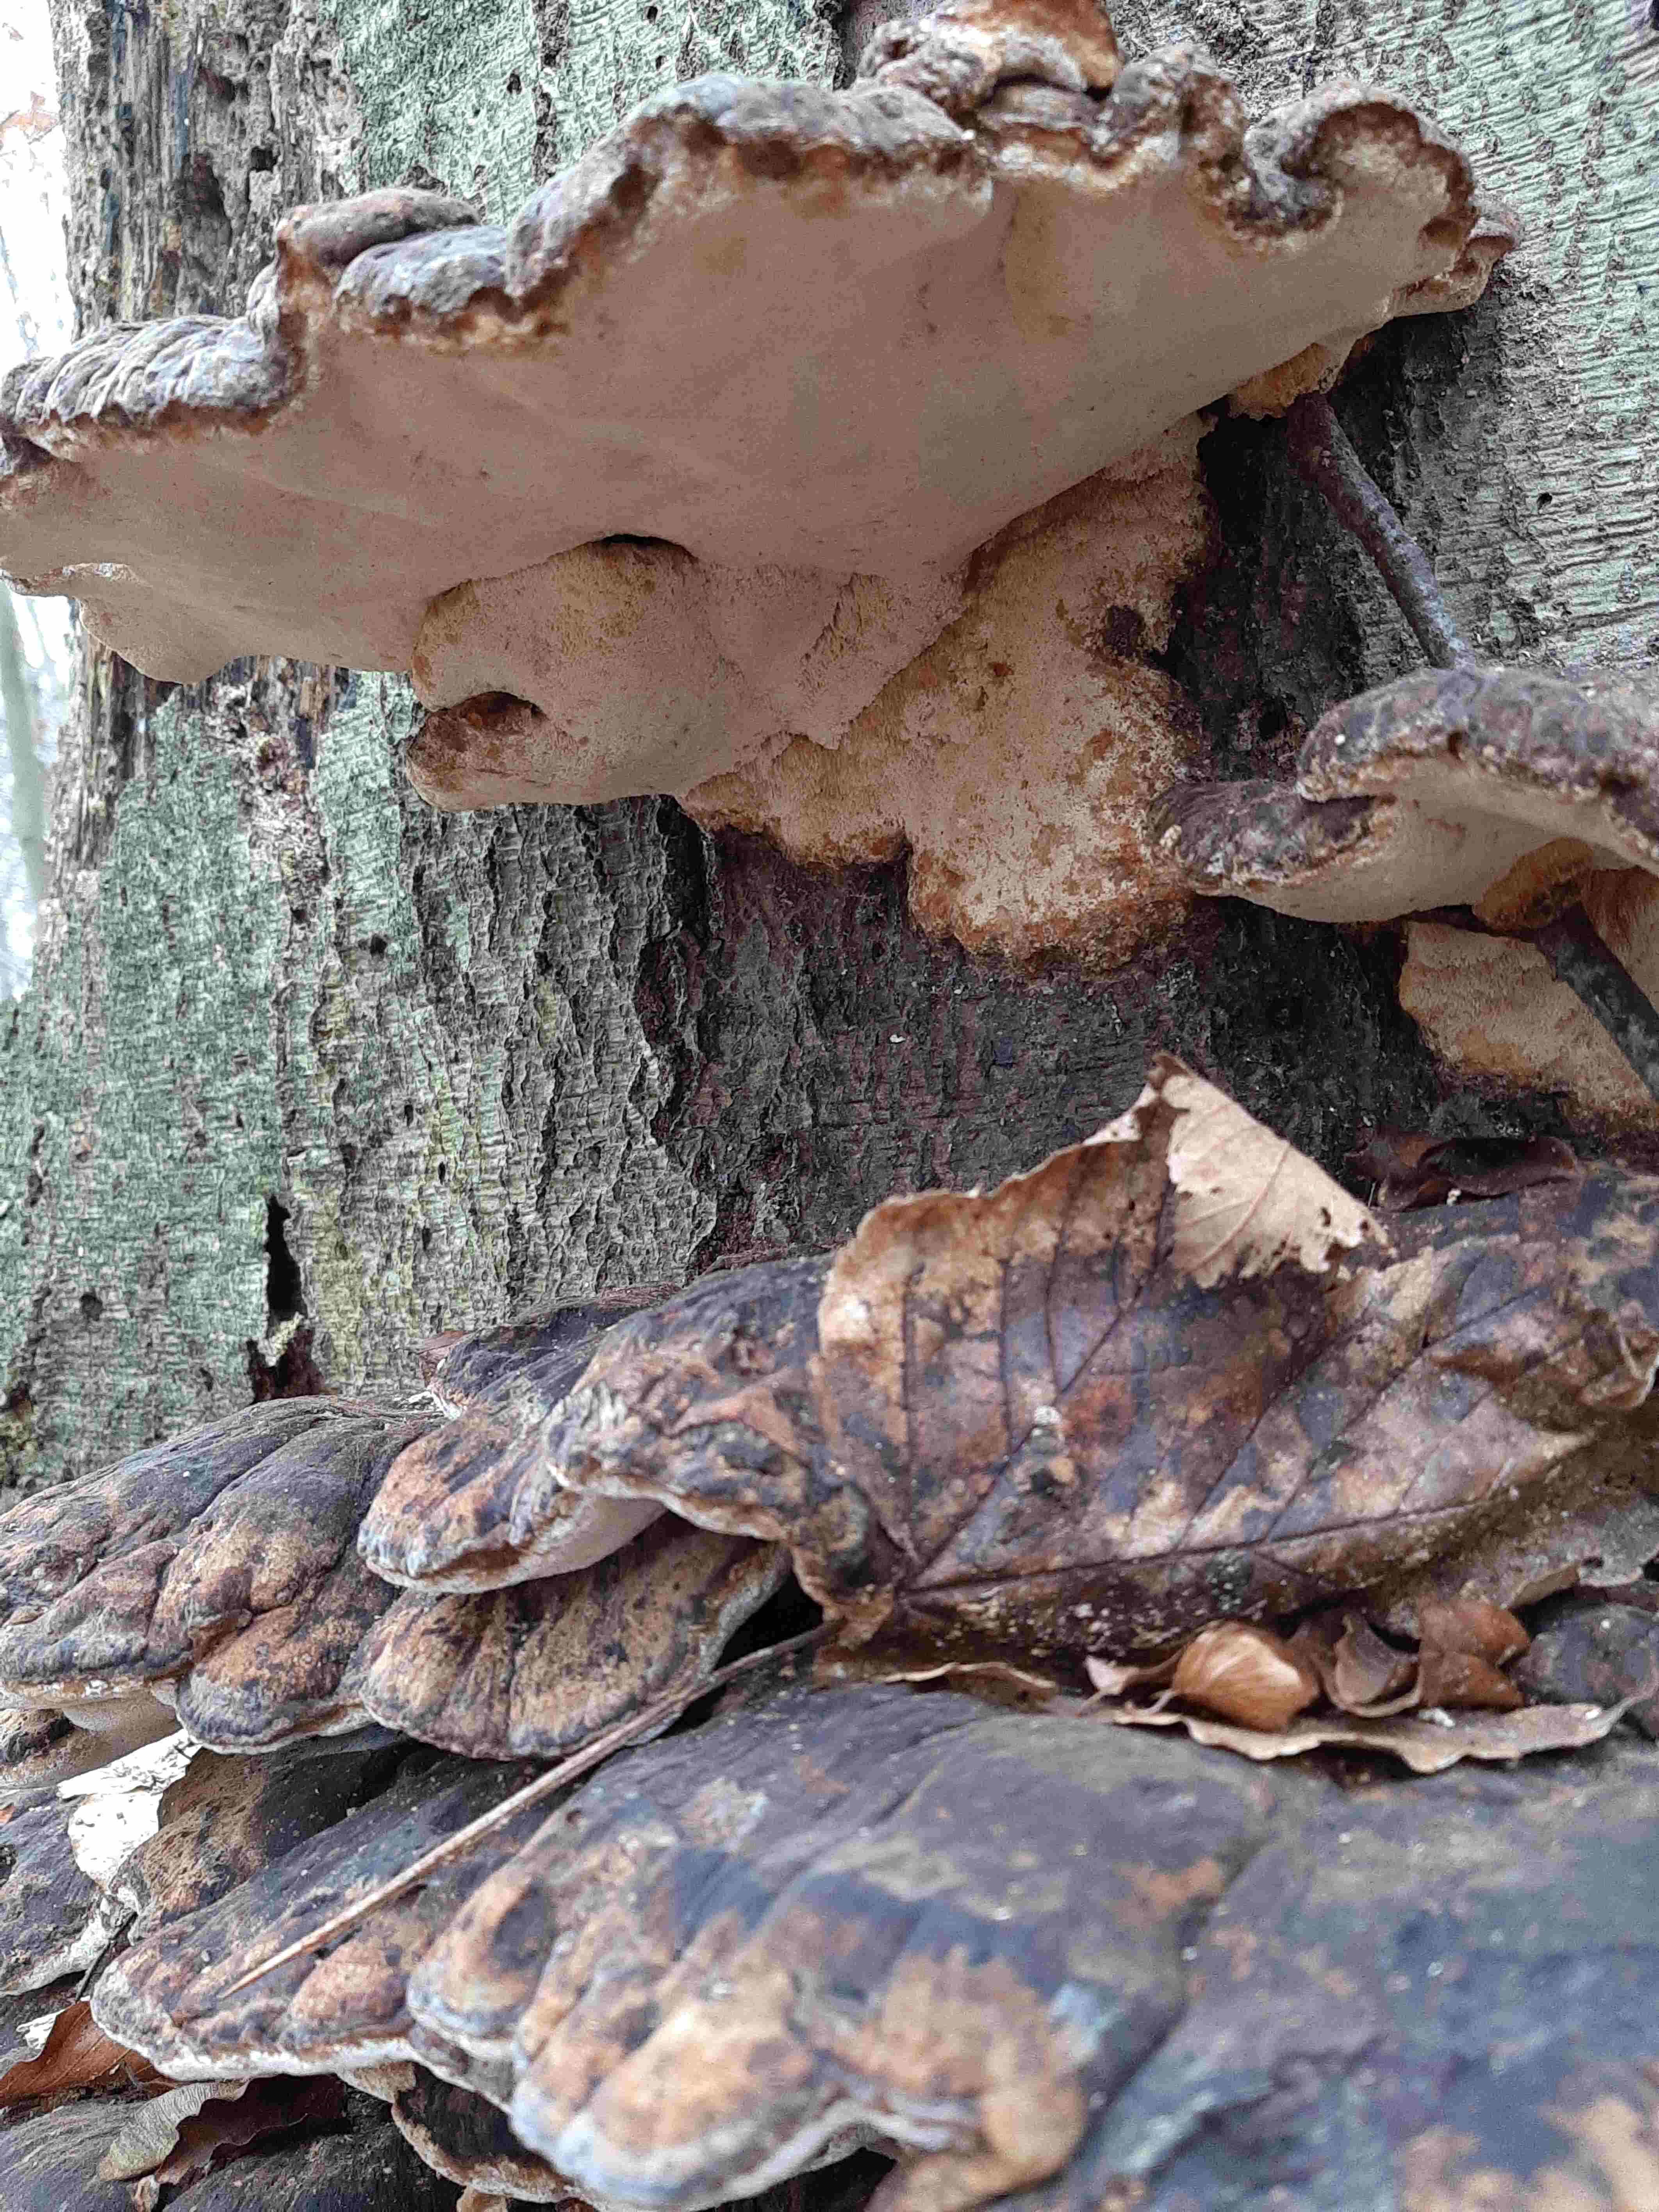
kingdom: Fungi
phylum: Basidiomycota
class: Agaricomycetes
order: Polyporales
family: Ischnodermataceae
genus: Ischnoderma
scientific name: Ischnoderma resinosum
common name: løv-tjæreporesvamp
